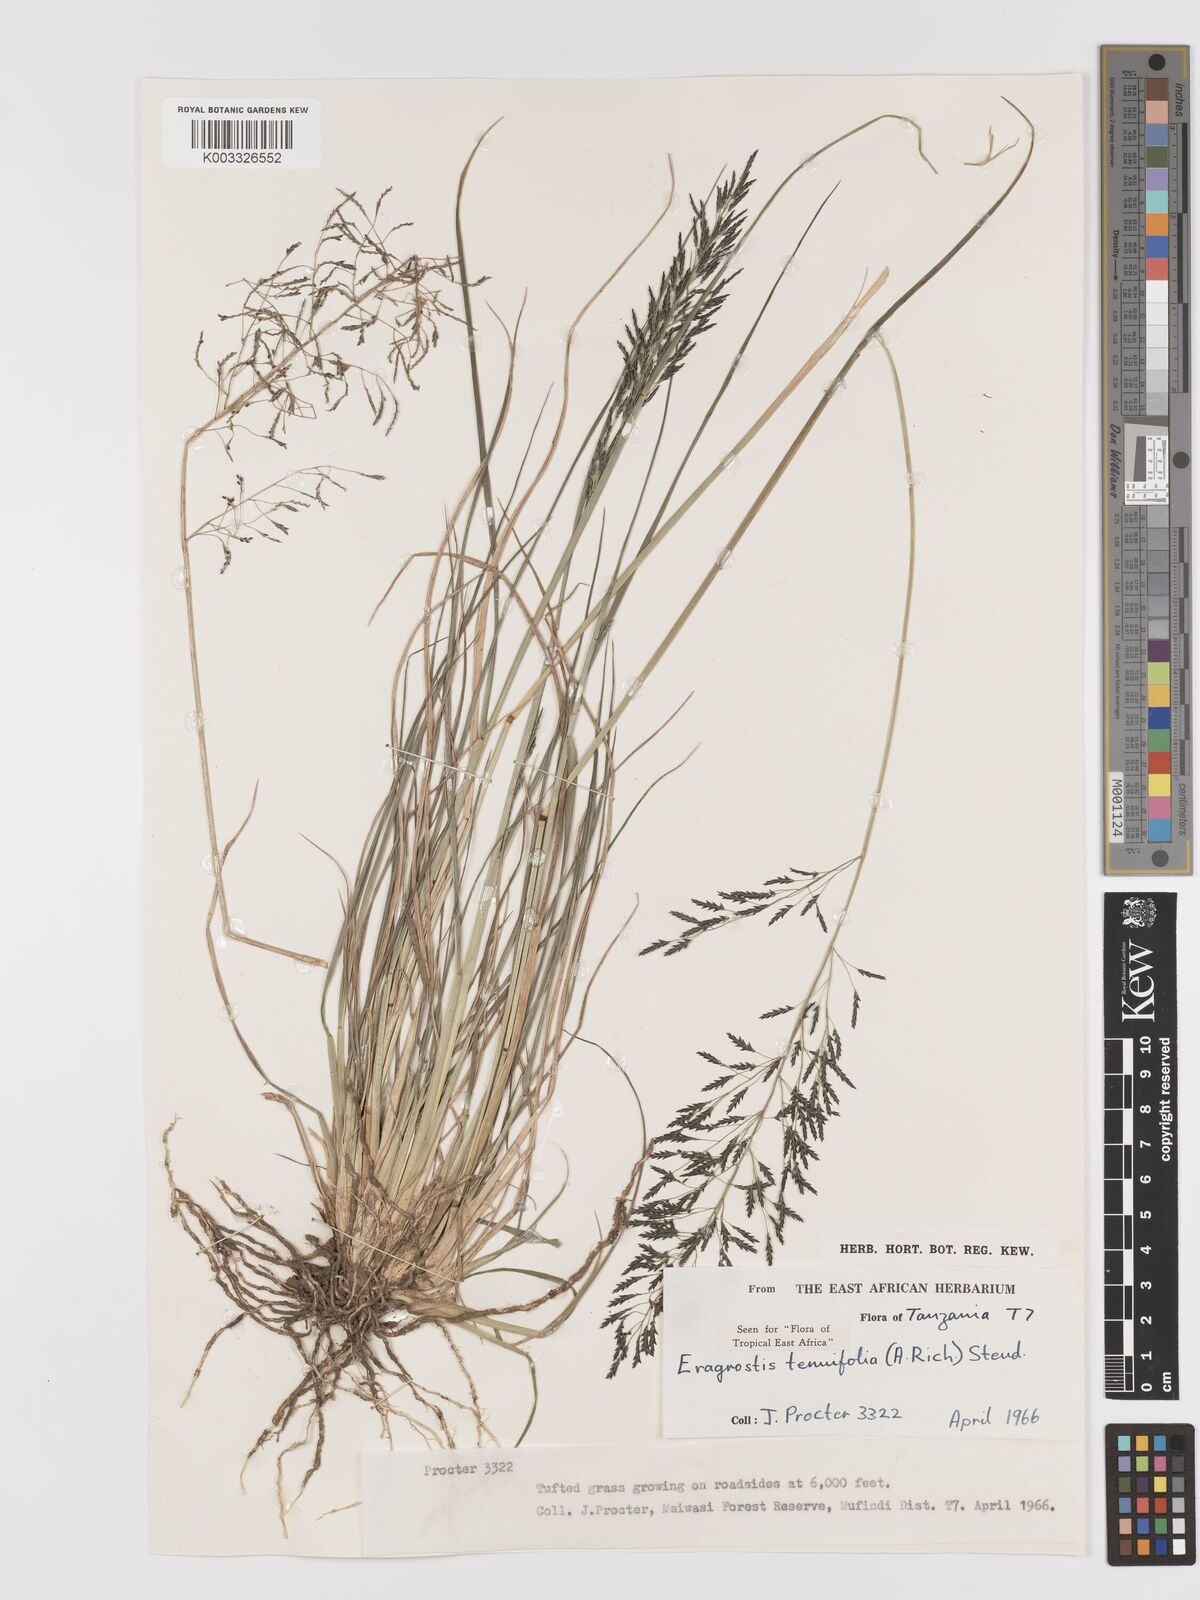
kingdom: Plantae
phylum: Tracheophyta
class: Liliopsida
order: Poales
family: Poaceae
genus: Eragrostis
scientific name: Eragrostis tenuifolia
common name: Elastic grass
